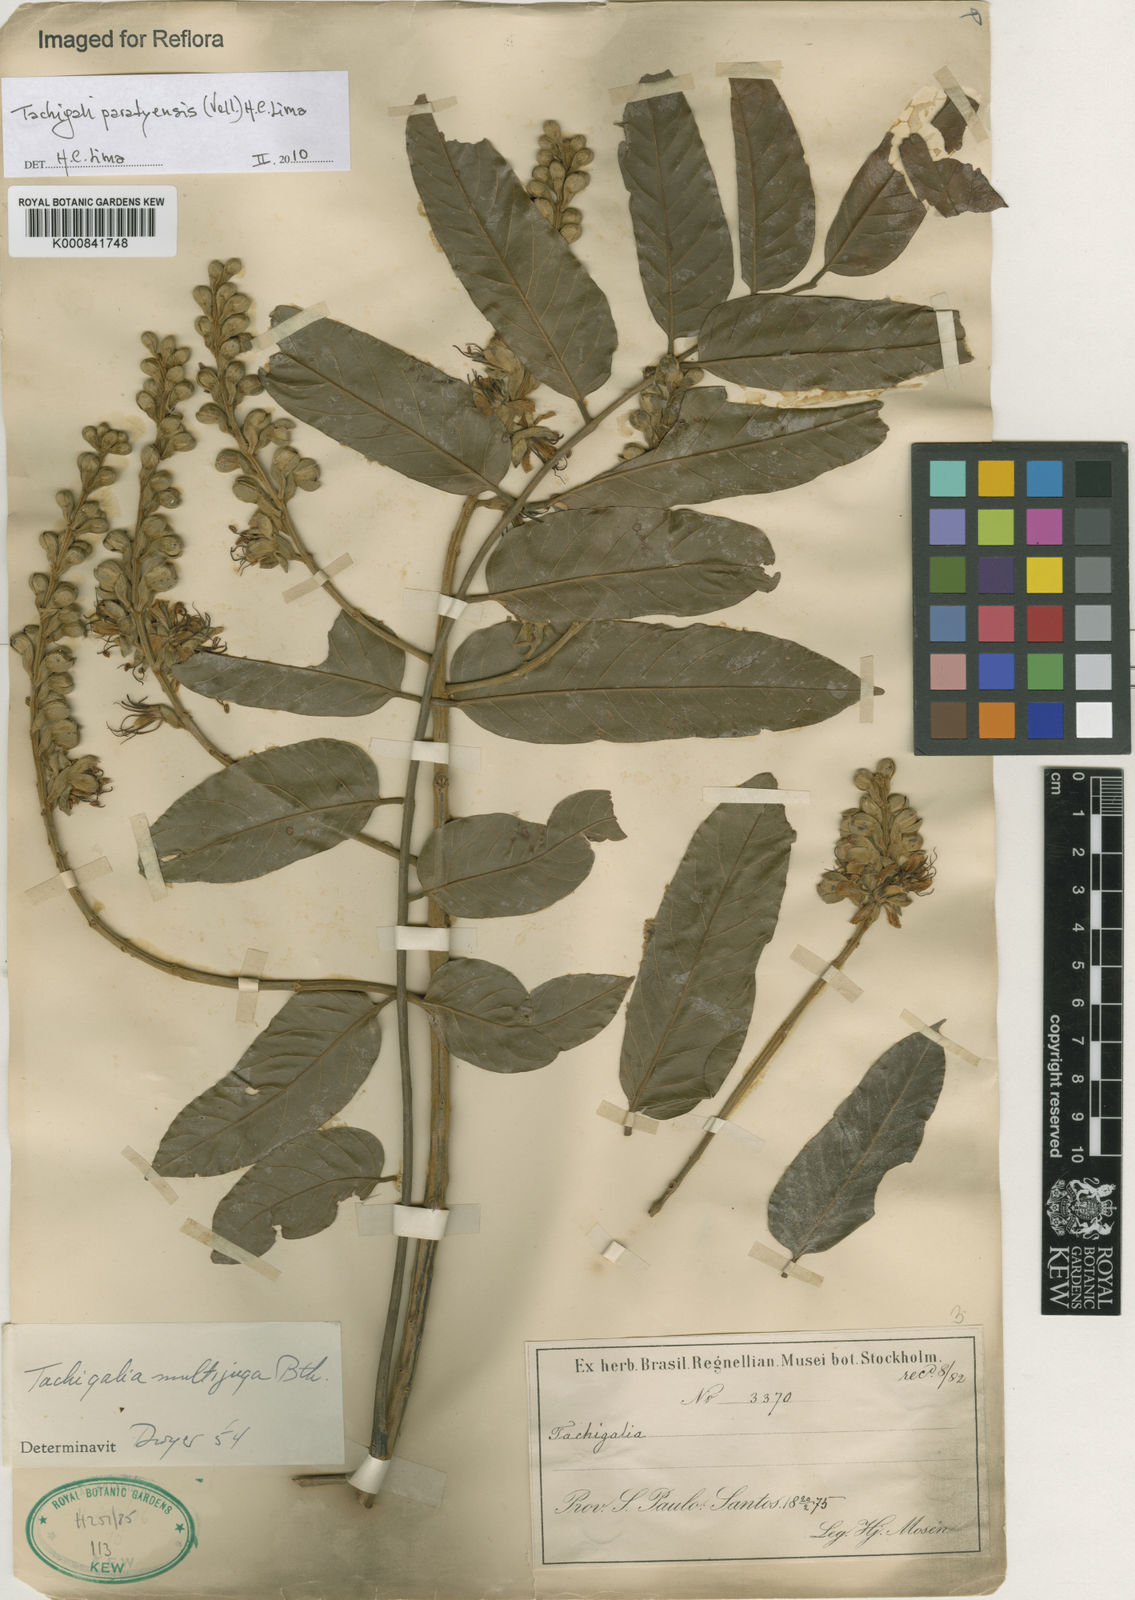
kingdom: Plantae
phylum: Tracheophyta
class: Magnoliopsida
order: Fabales
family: Fabaceae
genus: Tachigali
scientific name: Tachigali paratyensis
